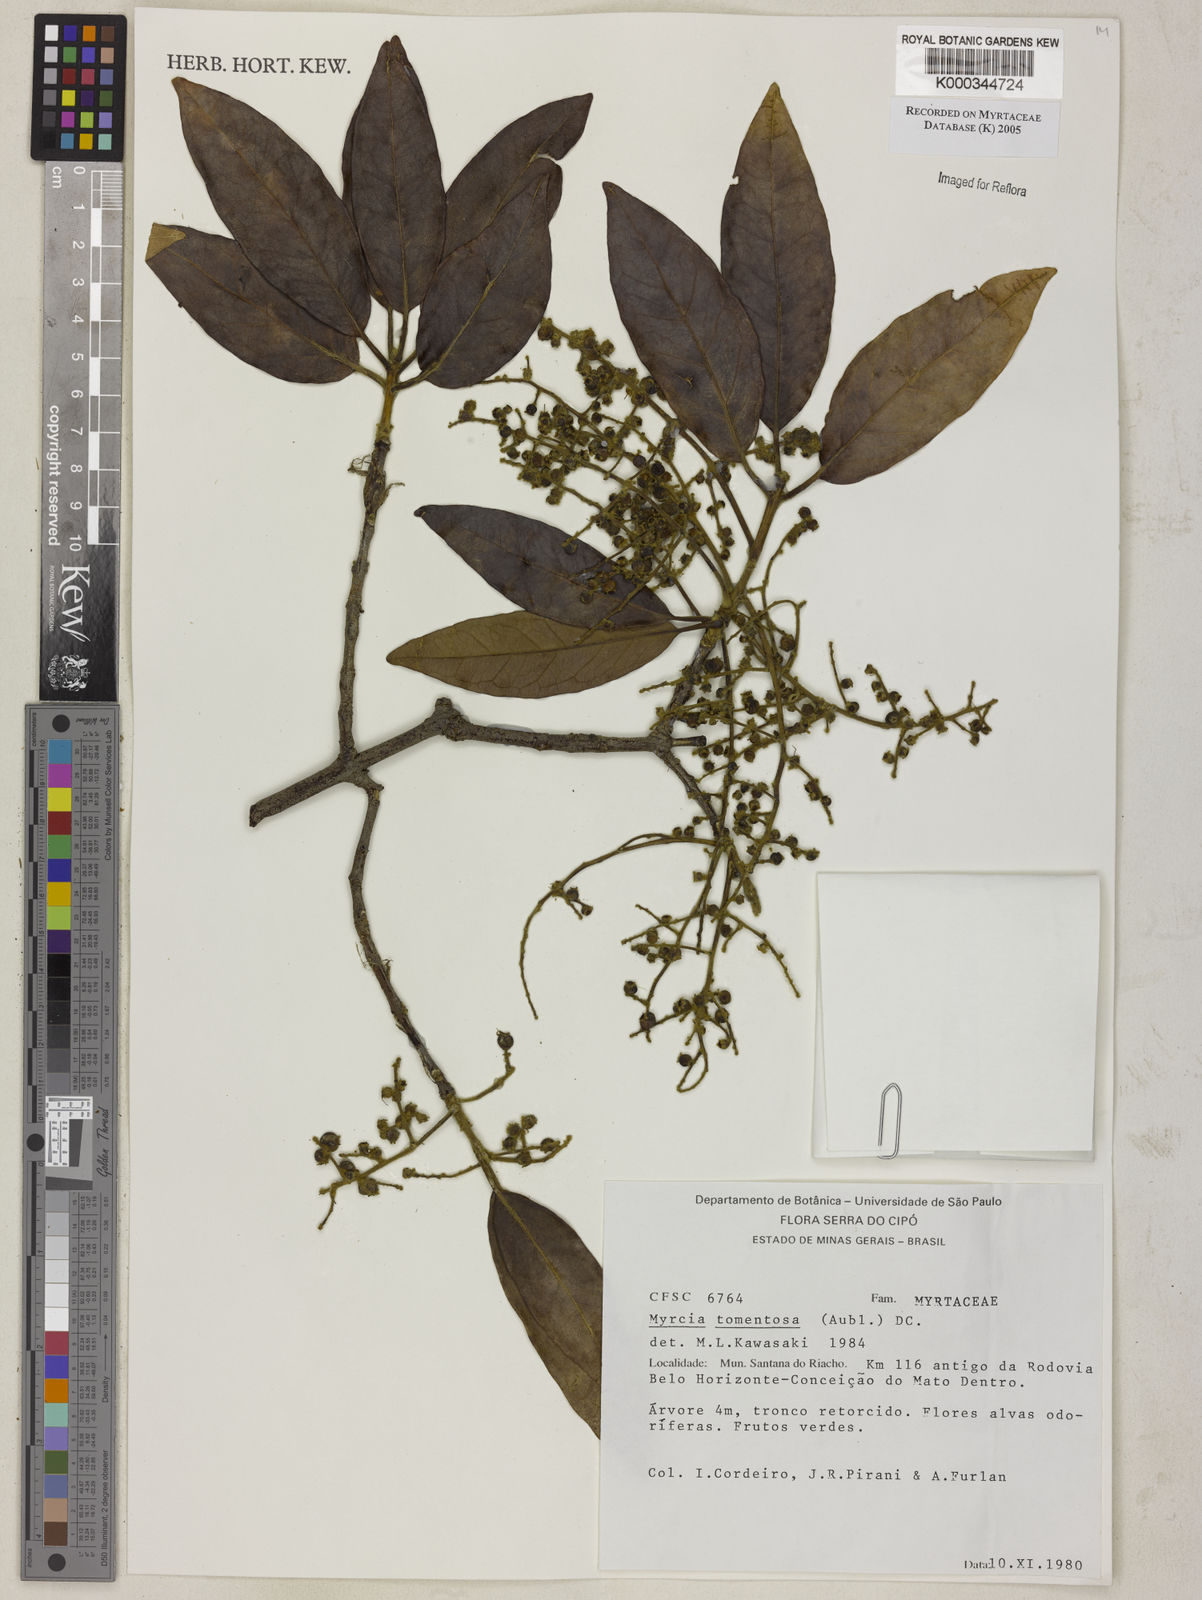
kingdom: Plantae
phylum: Tracheophyta
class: Magnoliopsida
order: Myrtales
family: Myrtaceae
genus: Myrcia
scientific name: Myrcia tomentosa
